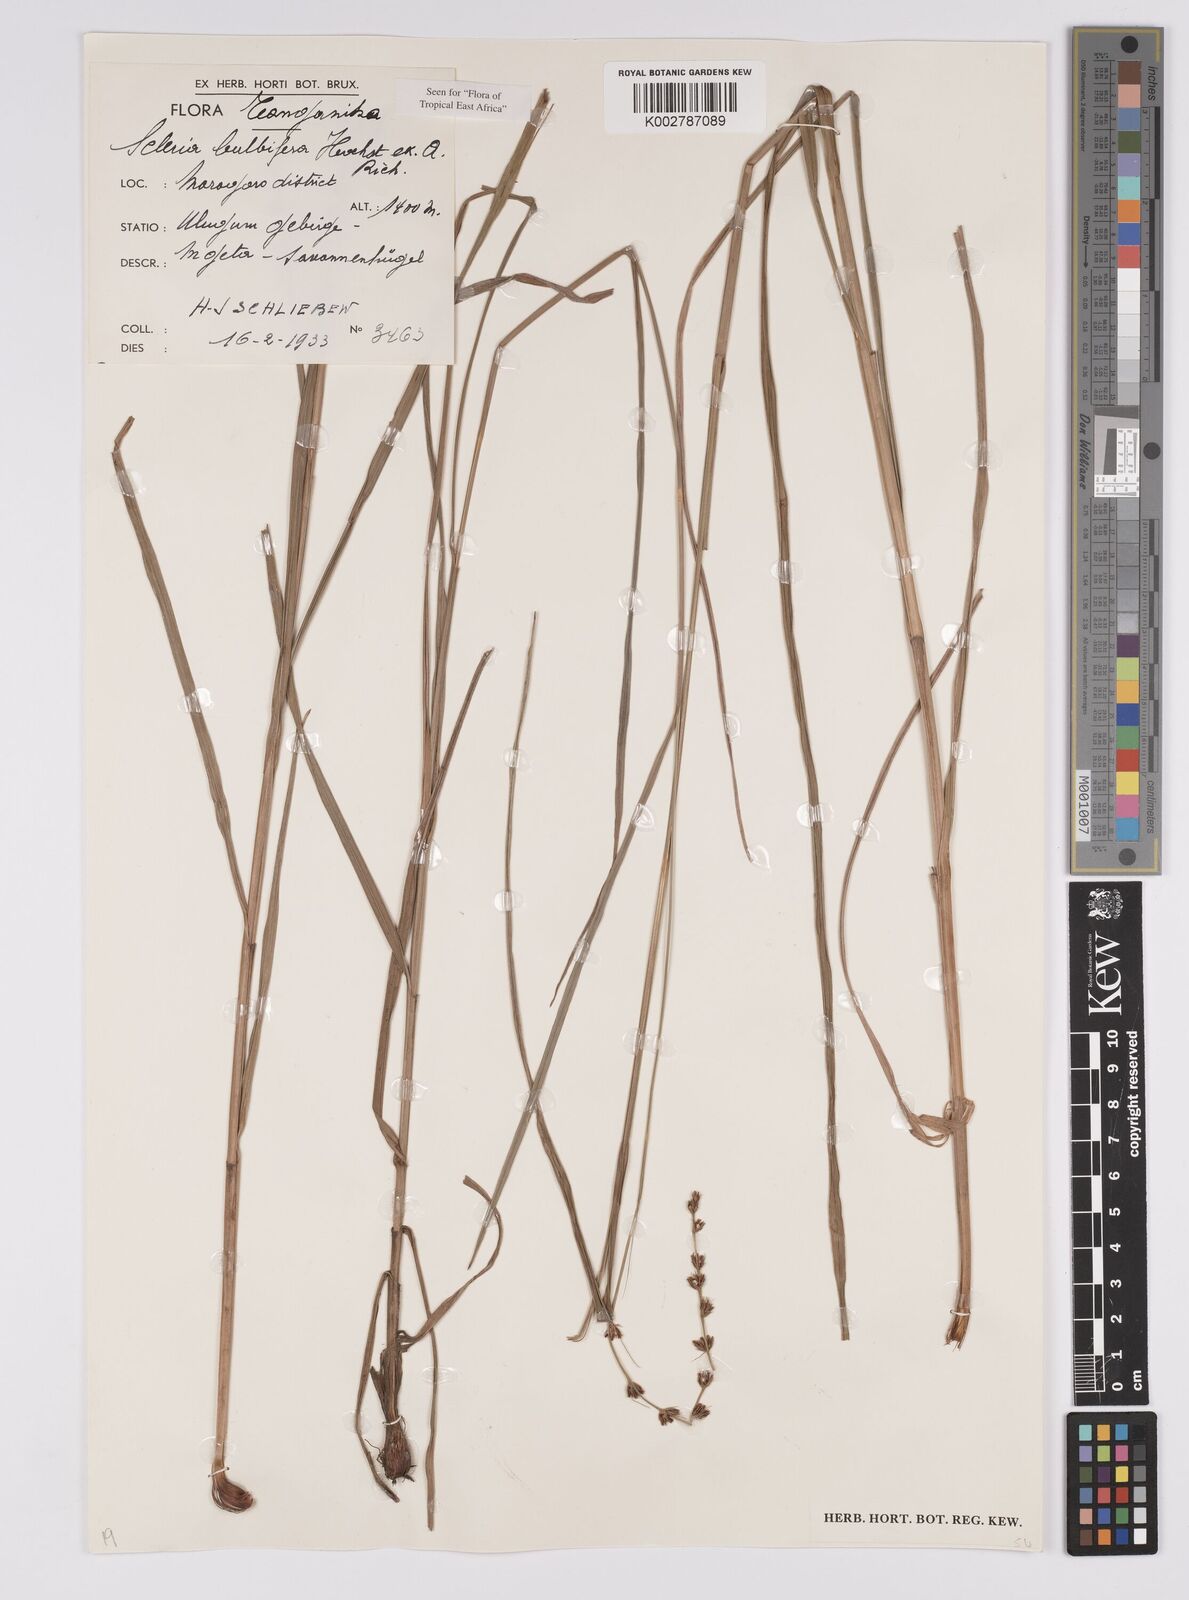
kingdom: Plantae
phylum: Tracheophyta
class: Liliopsida
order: Poales
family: Cyperaceae
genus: Scleria
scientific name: Scleria bulbifera
